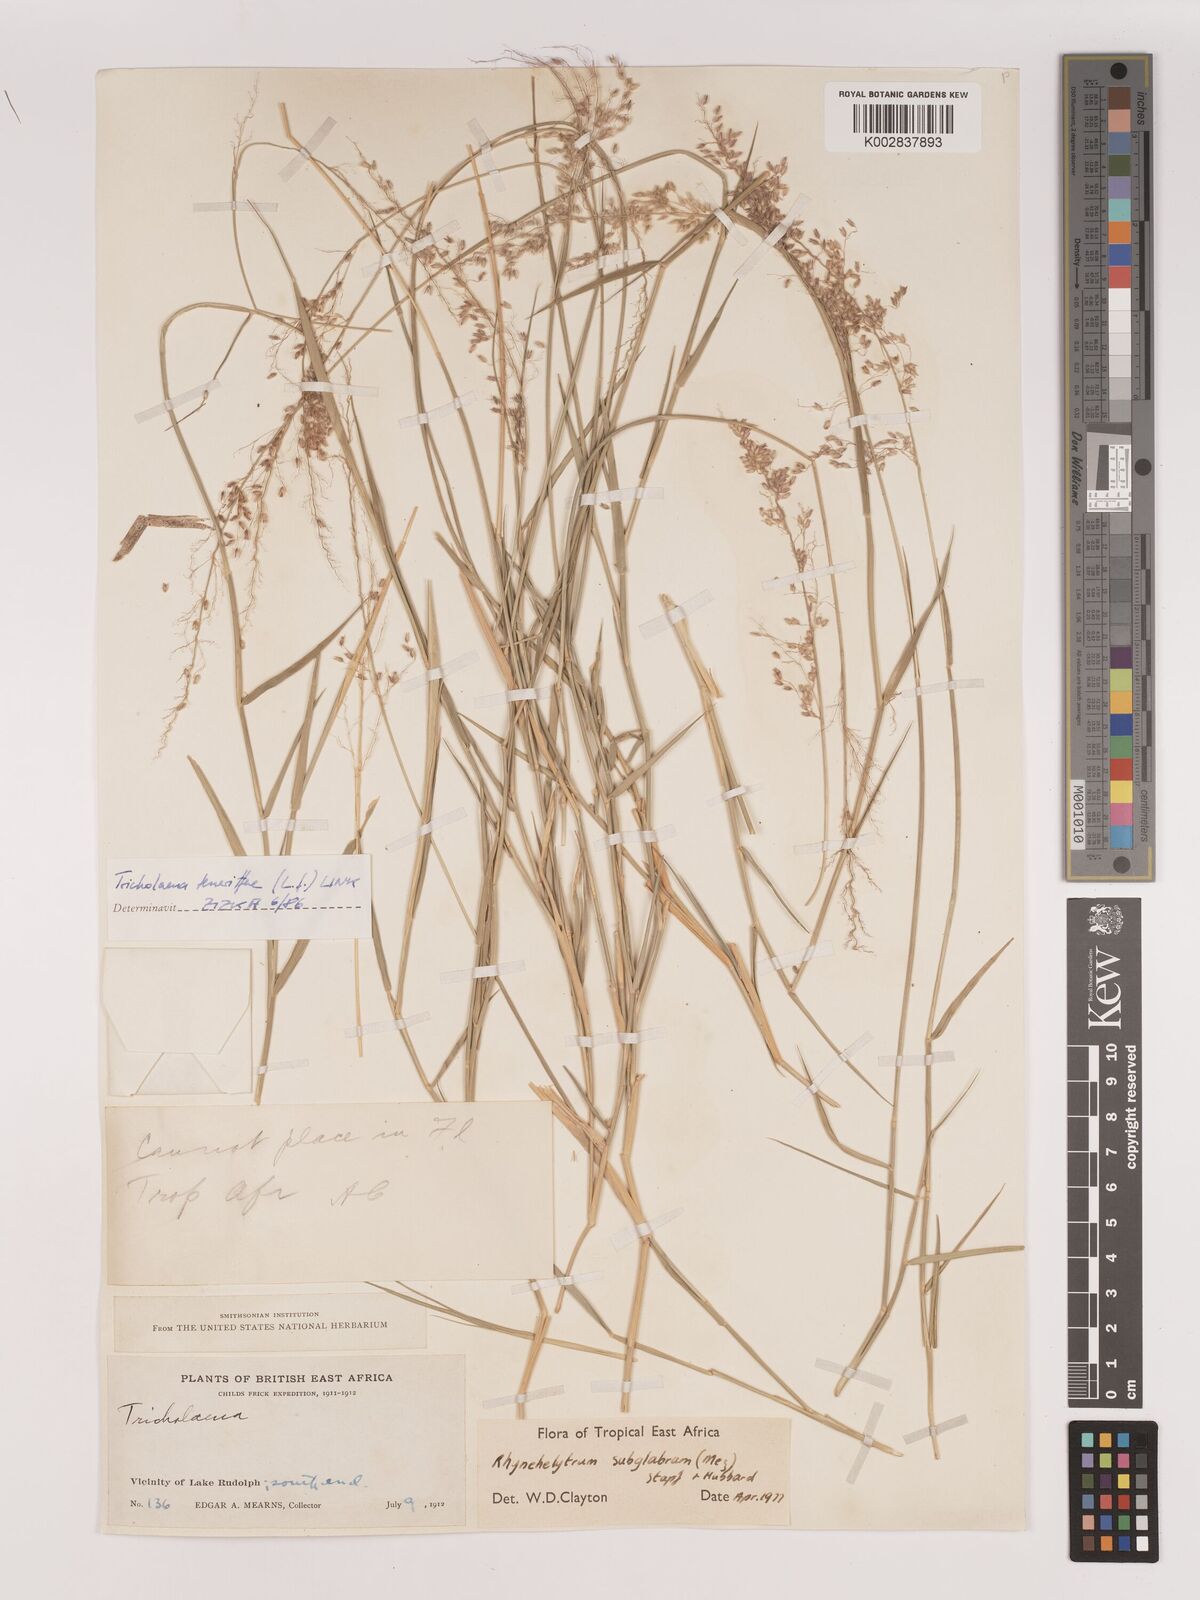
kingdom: Plantae
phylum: Tracheophyta
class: Liliopsida
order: Poales
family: Poaceae
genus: Melinis
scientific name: Melinis subglabra
